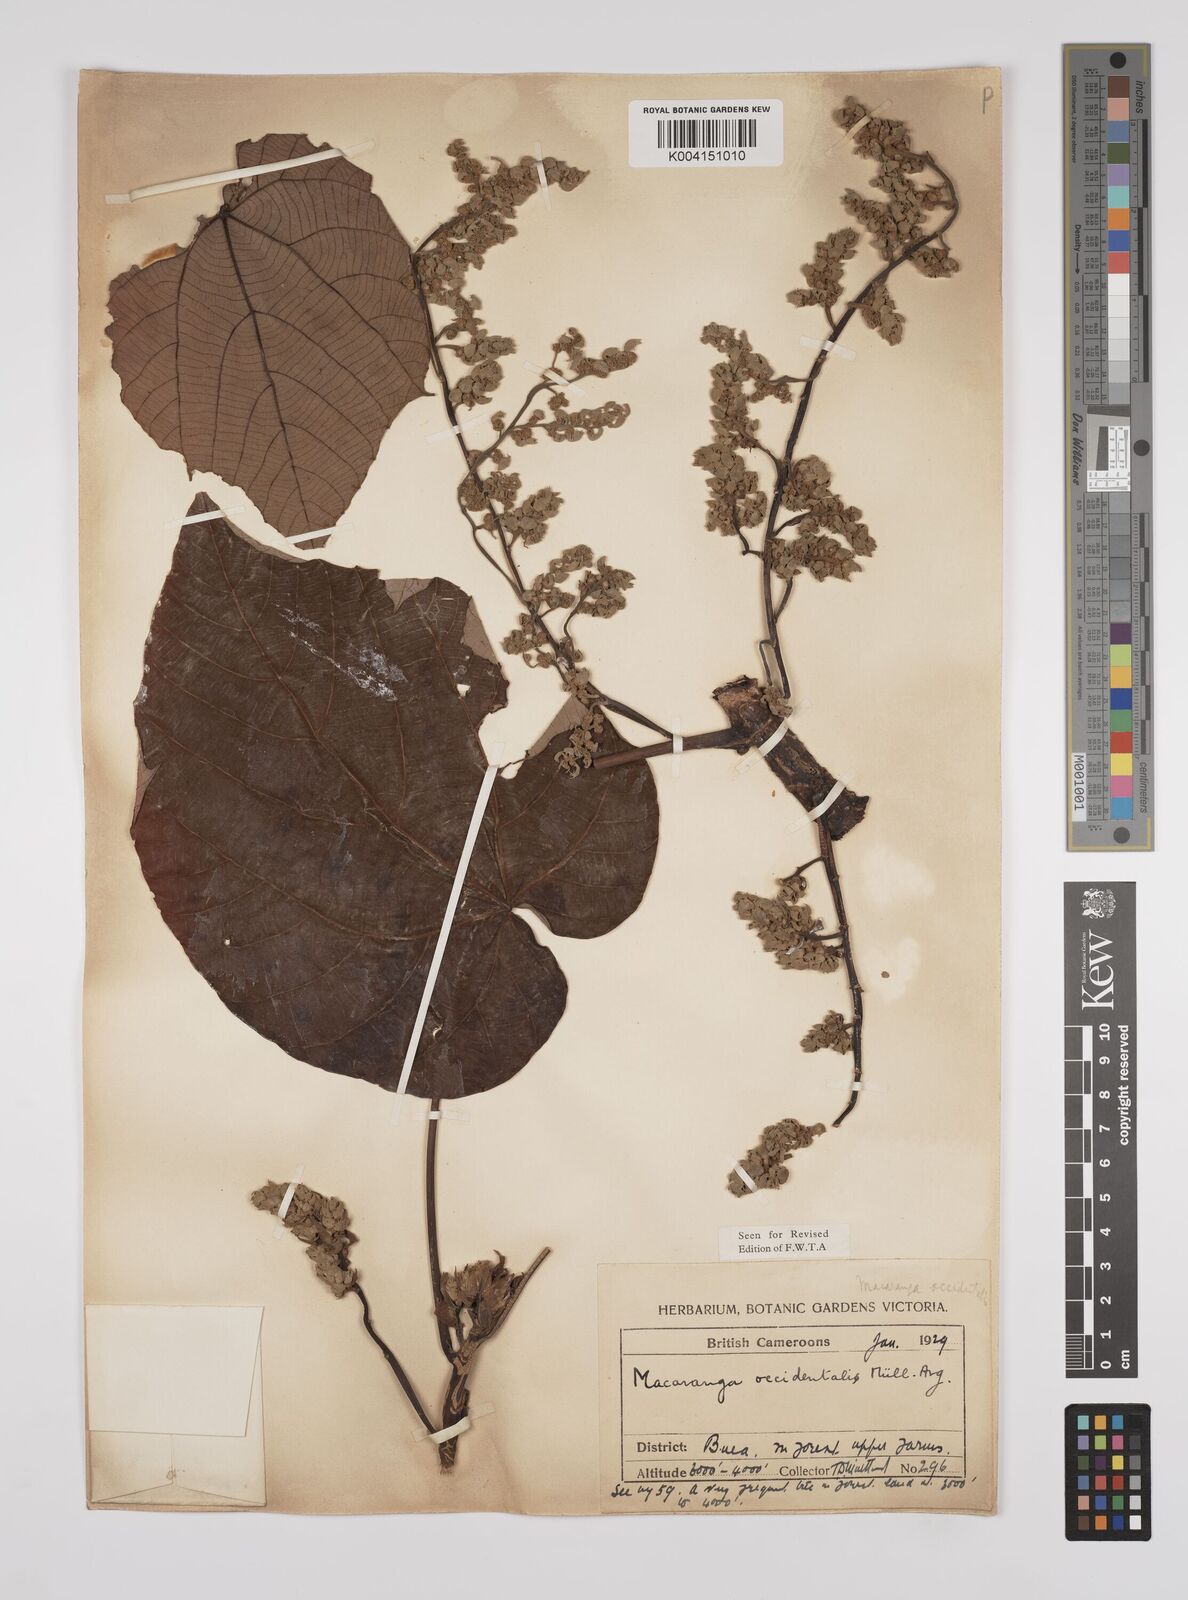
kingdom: Plantae
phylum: Tracheophyta
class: Magnoliopsida
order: Malpighiales
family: Euphorbiaceae
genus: Macaranga
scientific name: Macaranga occidentalis
